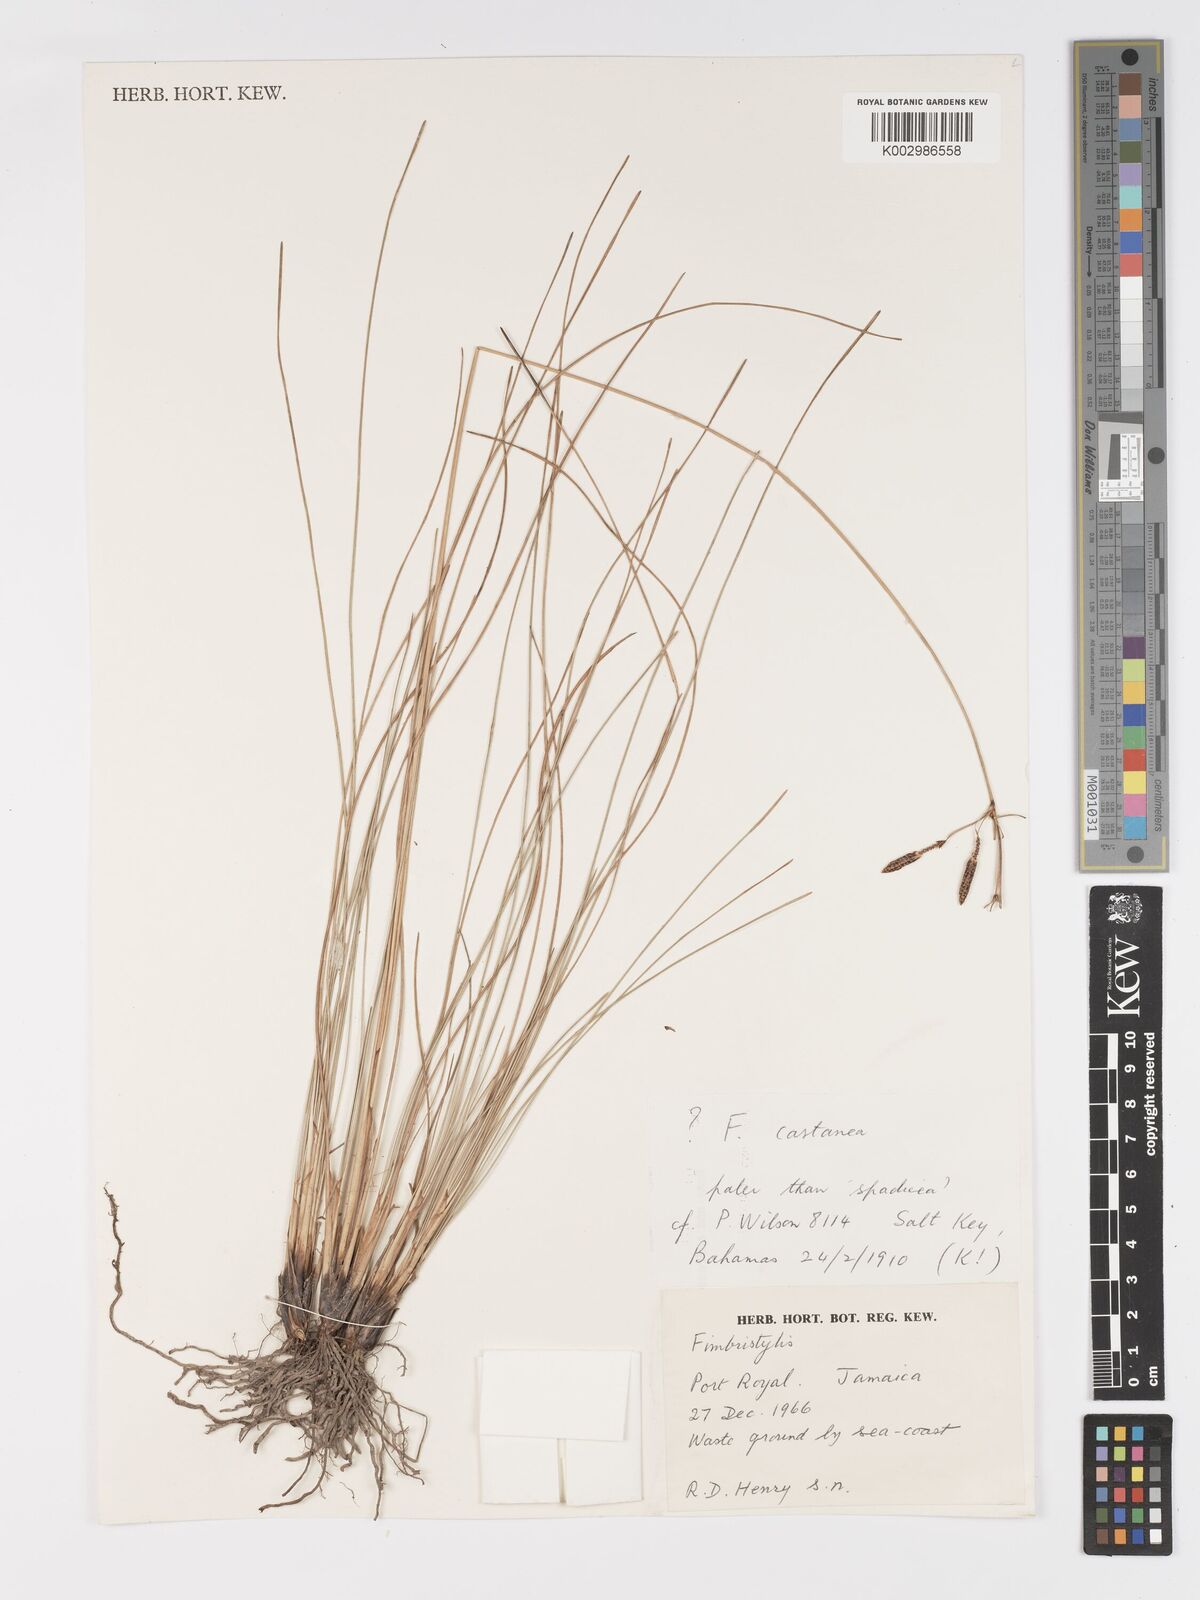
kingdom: Plantae
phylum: Tracheophyta
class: Liliopsida
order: Poales
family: Cyperaceae
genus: Fimbristylis
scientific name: Fimbristylis spadicea
